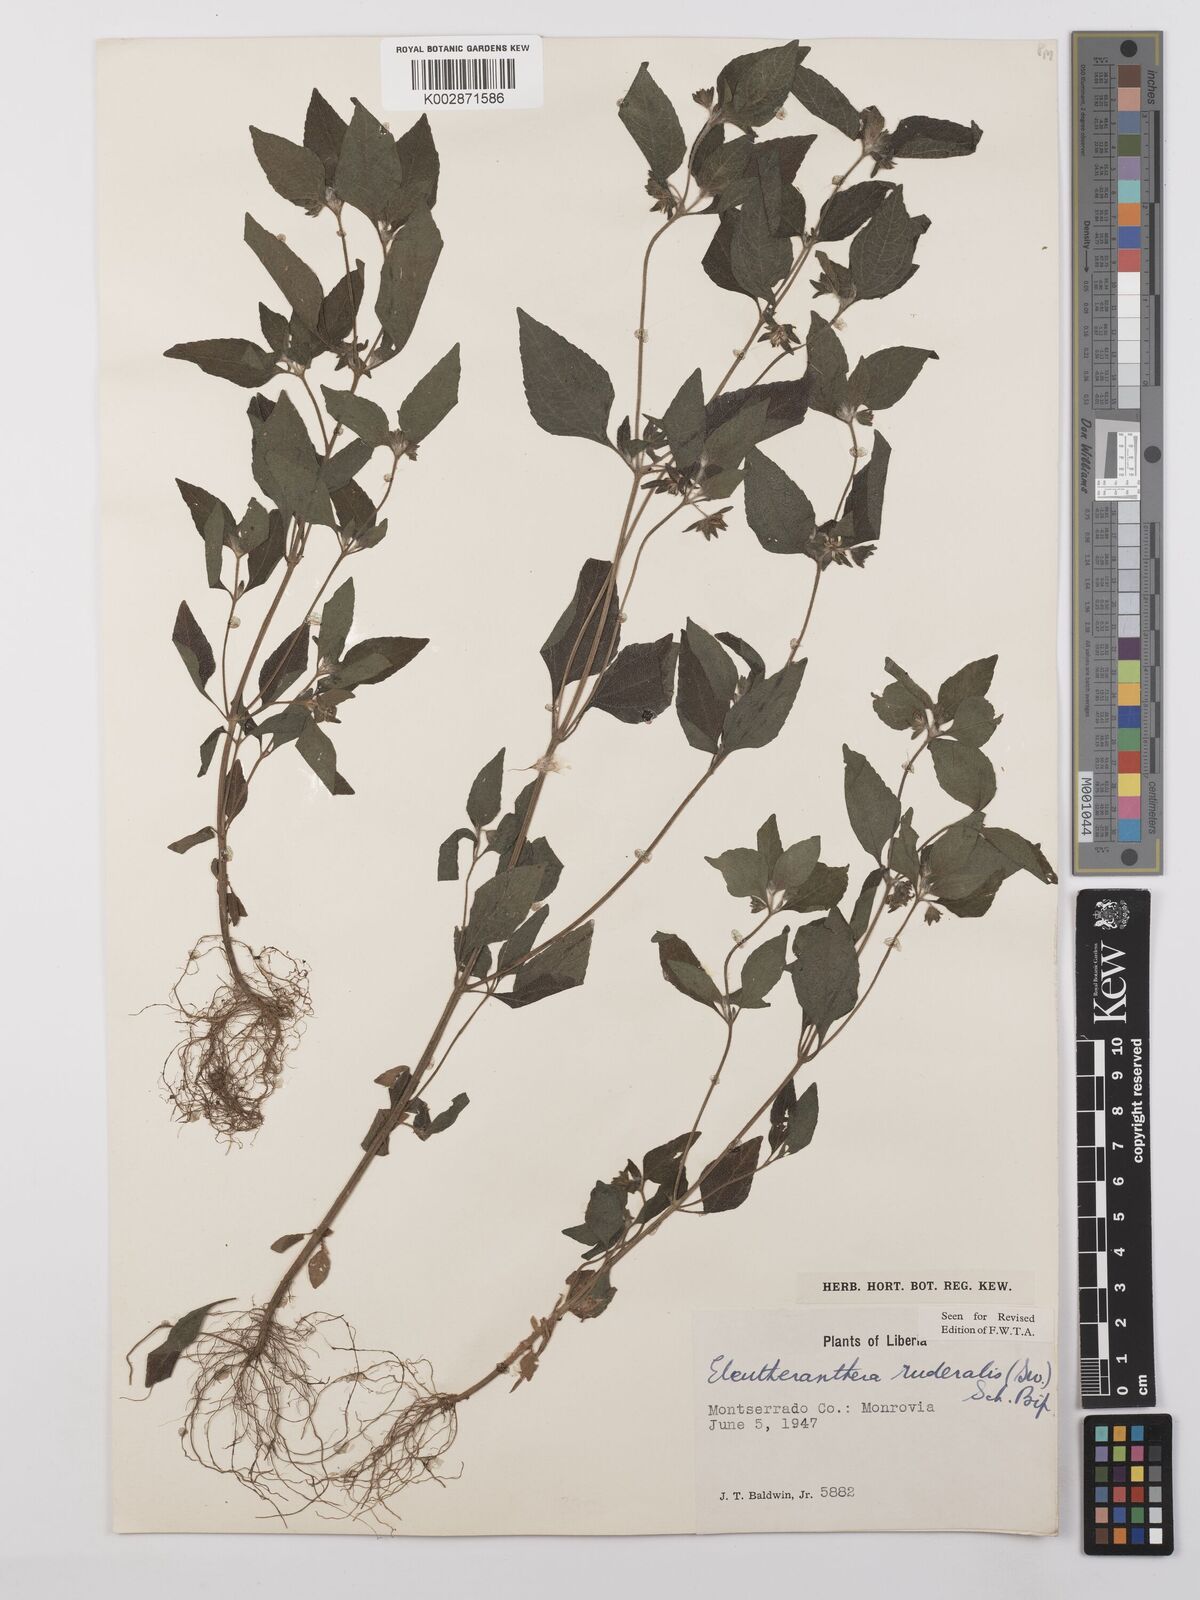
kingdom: Plantae
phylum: Tracheophyta
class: Magnoliopsida
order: Asterales
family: Asteraceae
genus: Eleutheranthera
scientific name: Eleutheranthera ruderalis
